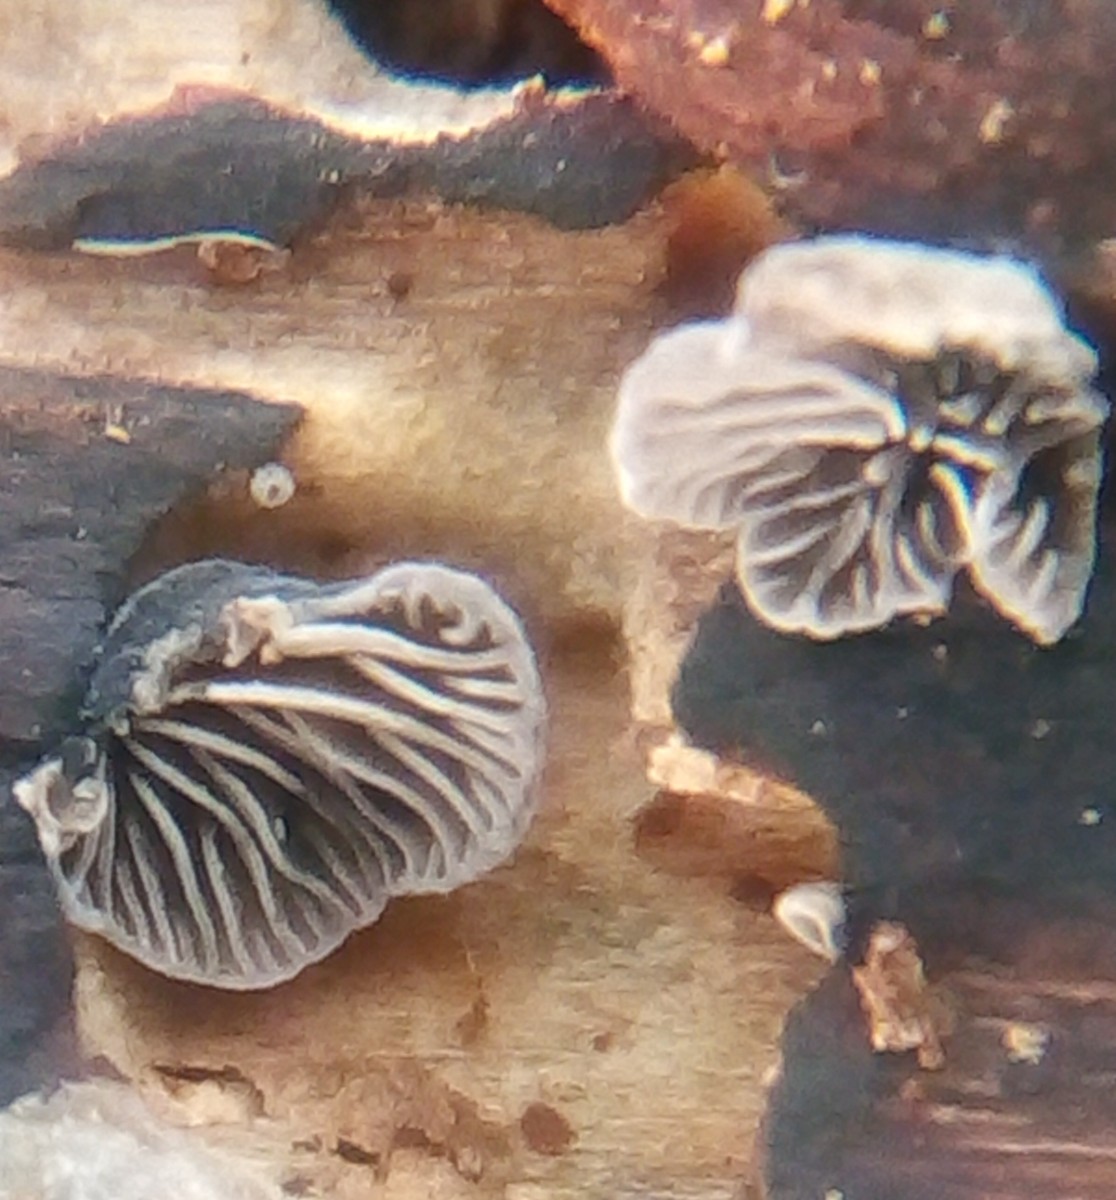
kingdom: Fungi
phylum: Basidiomycota
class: Agaricomycetes
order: Agaricales
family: Pleurotaceae
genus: Resupinatus
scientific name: Resupinatus trichotis
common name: mørkfiltet barkhat
